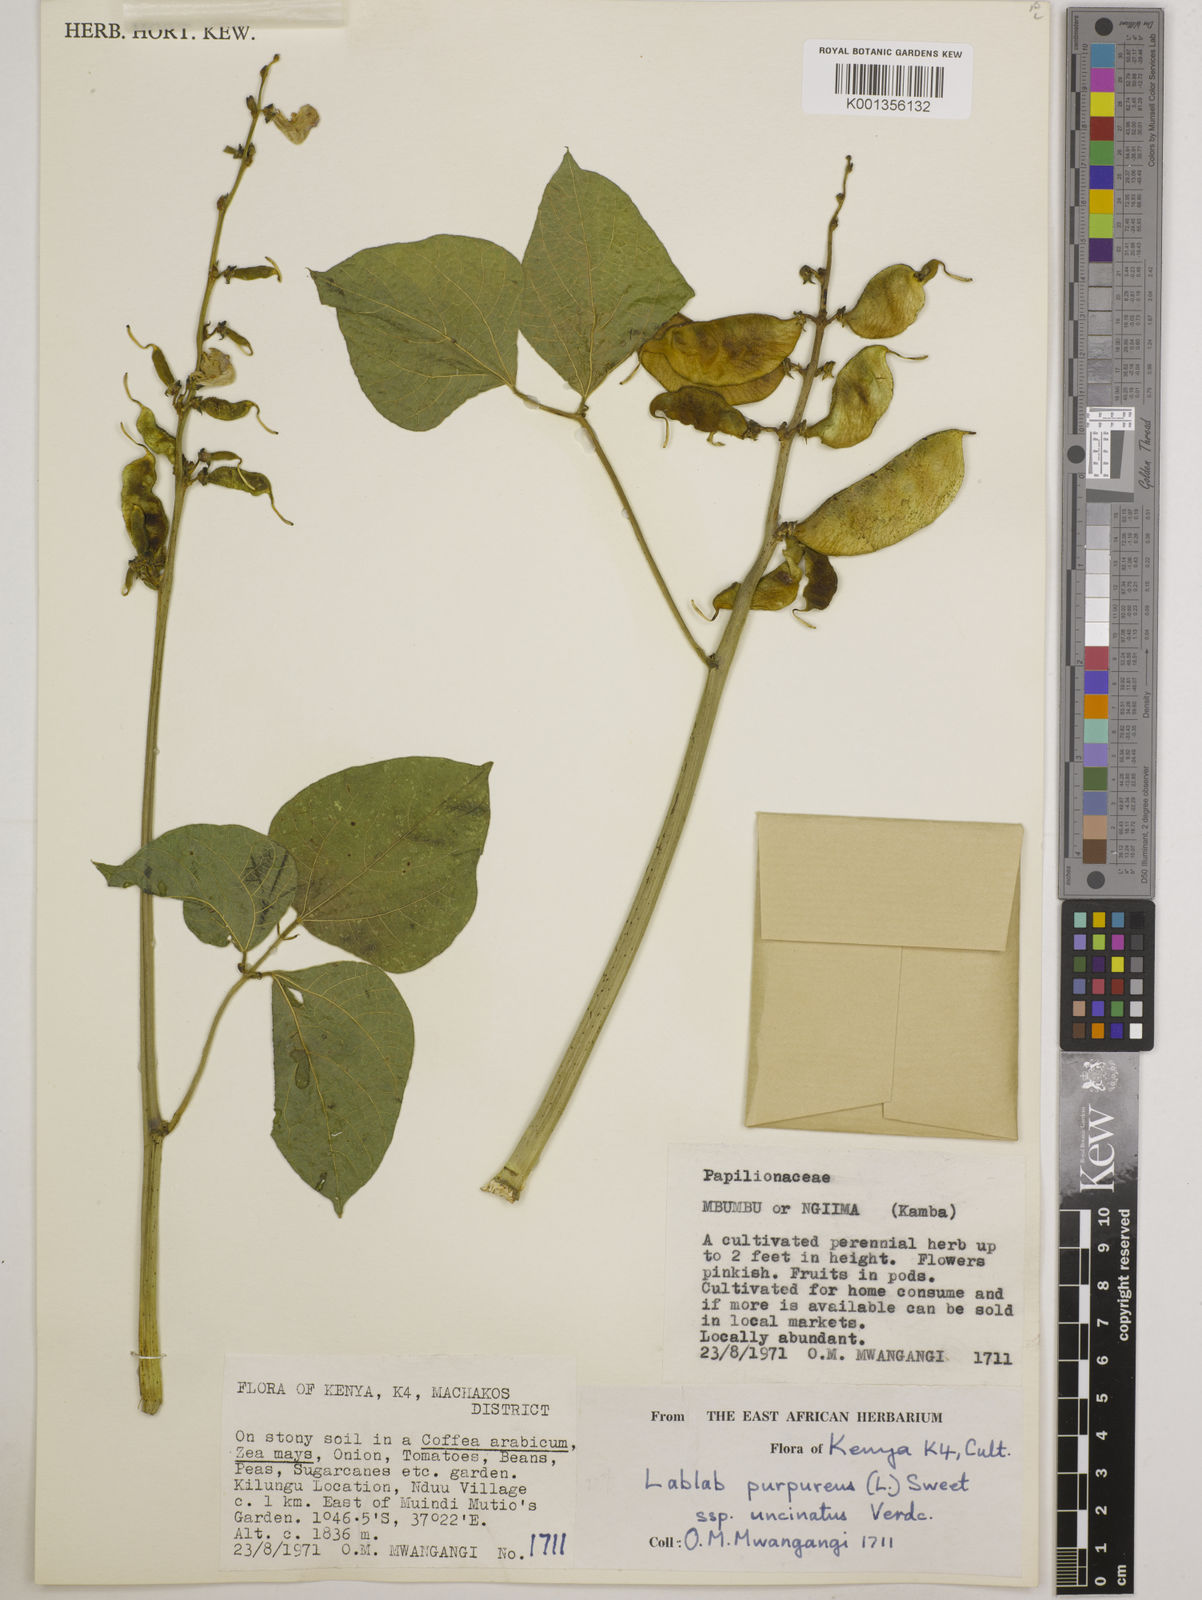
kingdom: Plantae
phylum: Tracheophyta
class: Magnoliopsida
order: Fabales
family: Fabaceae
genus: Lablab
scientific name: Lablab purpureus
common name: Lablab-bean
